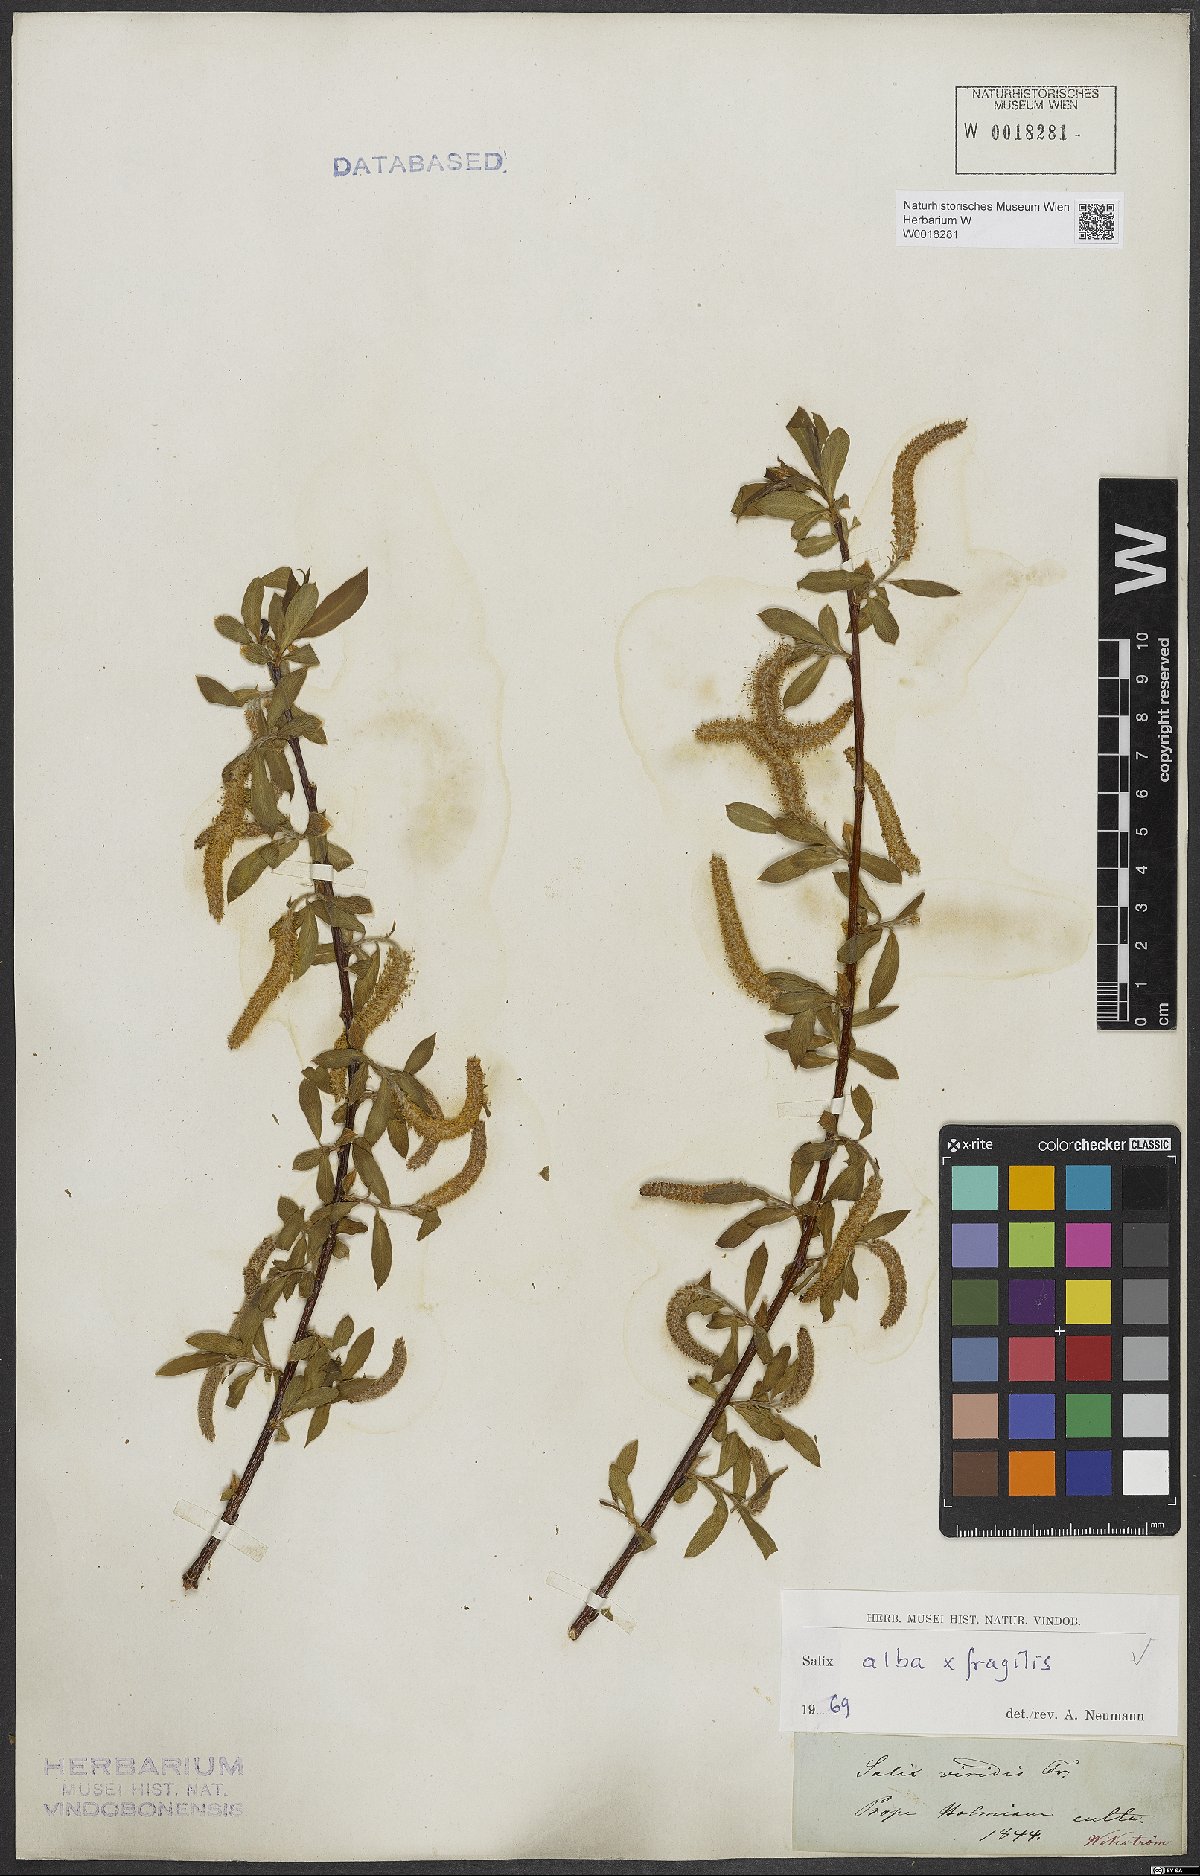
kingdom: Plantae
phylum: Tracheophyta
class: Magnoliopsida
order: Malpighiales
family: Salicaceae
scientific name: Salicaceae
